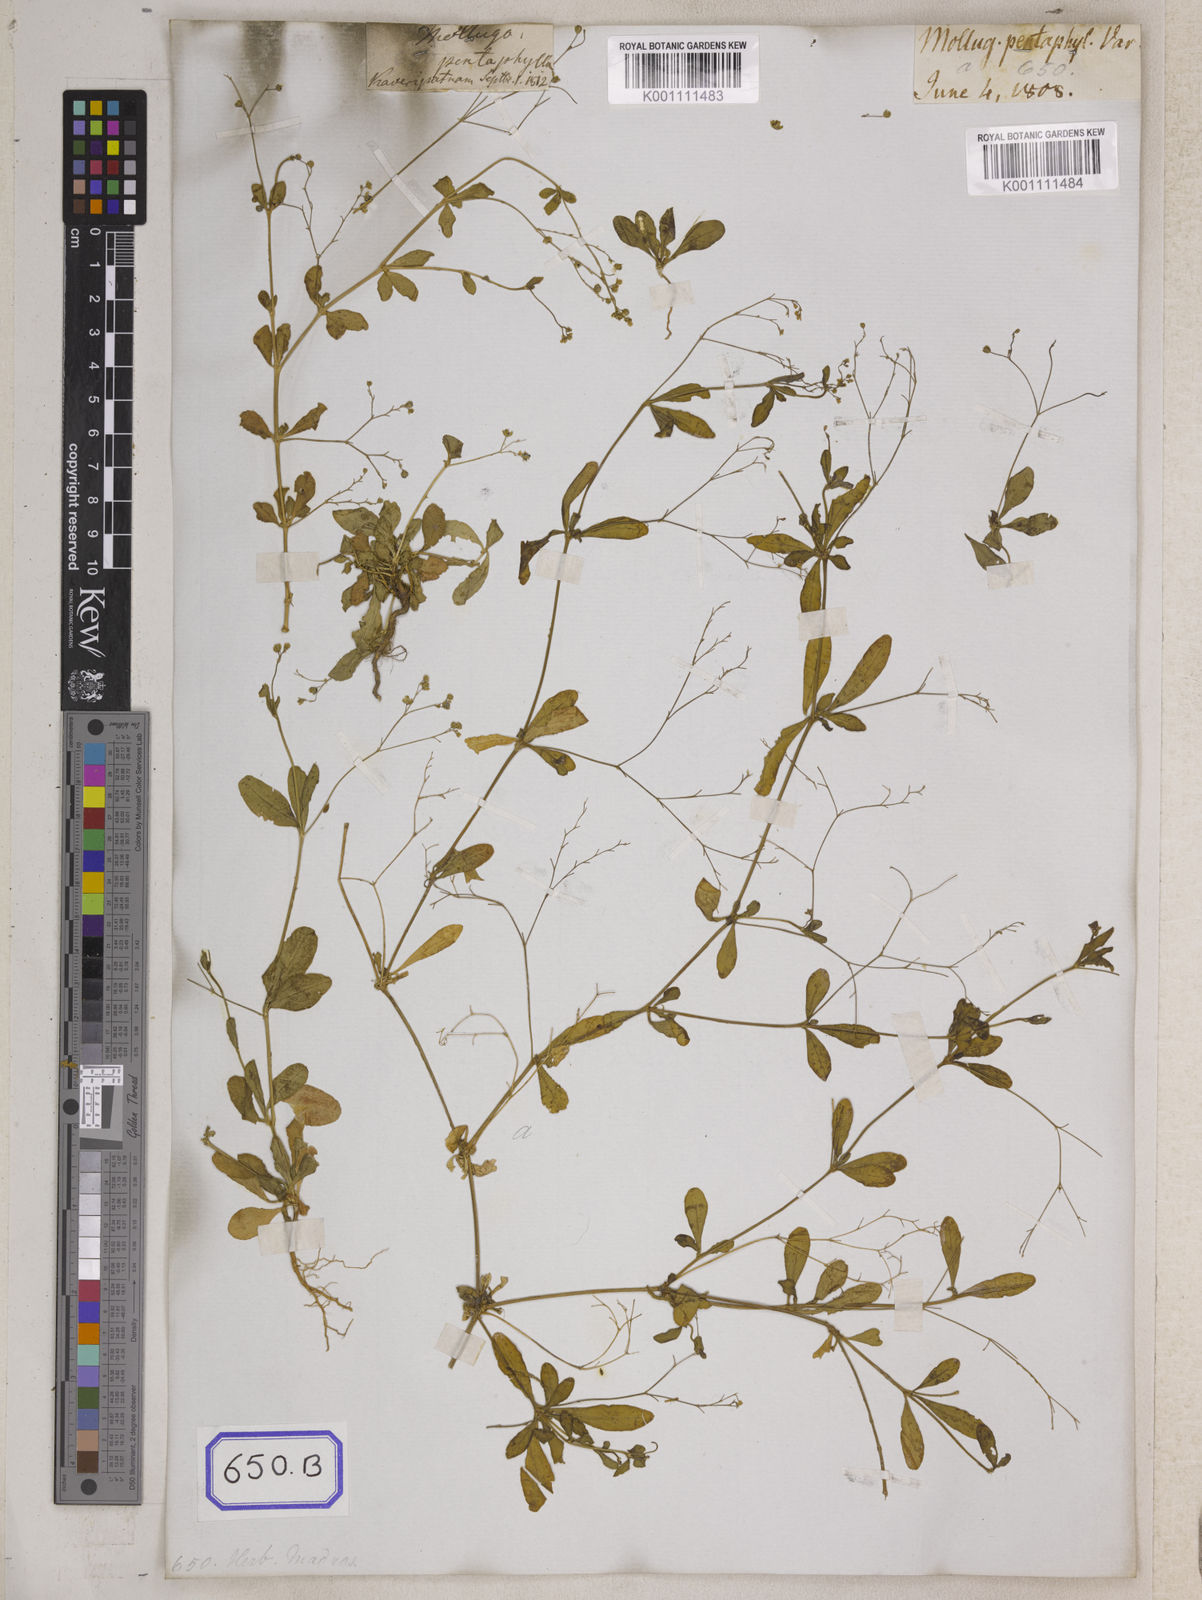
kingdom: Plantae
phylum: Tracheophyta
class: Magnoliopsida
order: Caryophyllales
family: Molluginaceae
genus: Trigastrotheca
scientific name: Trigastrotheca pentaphylla
